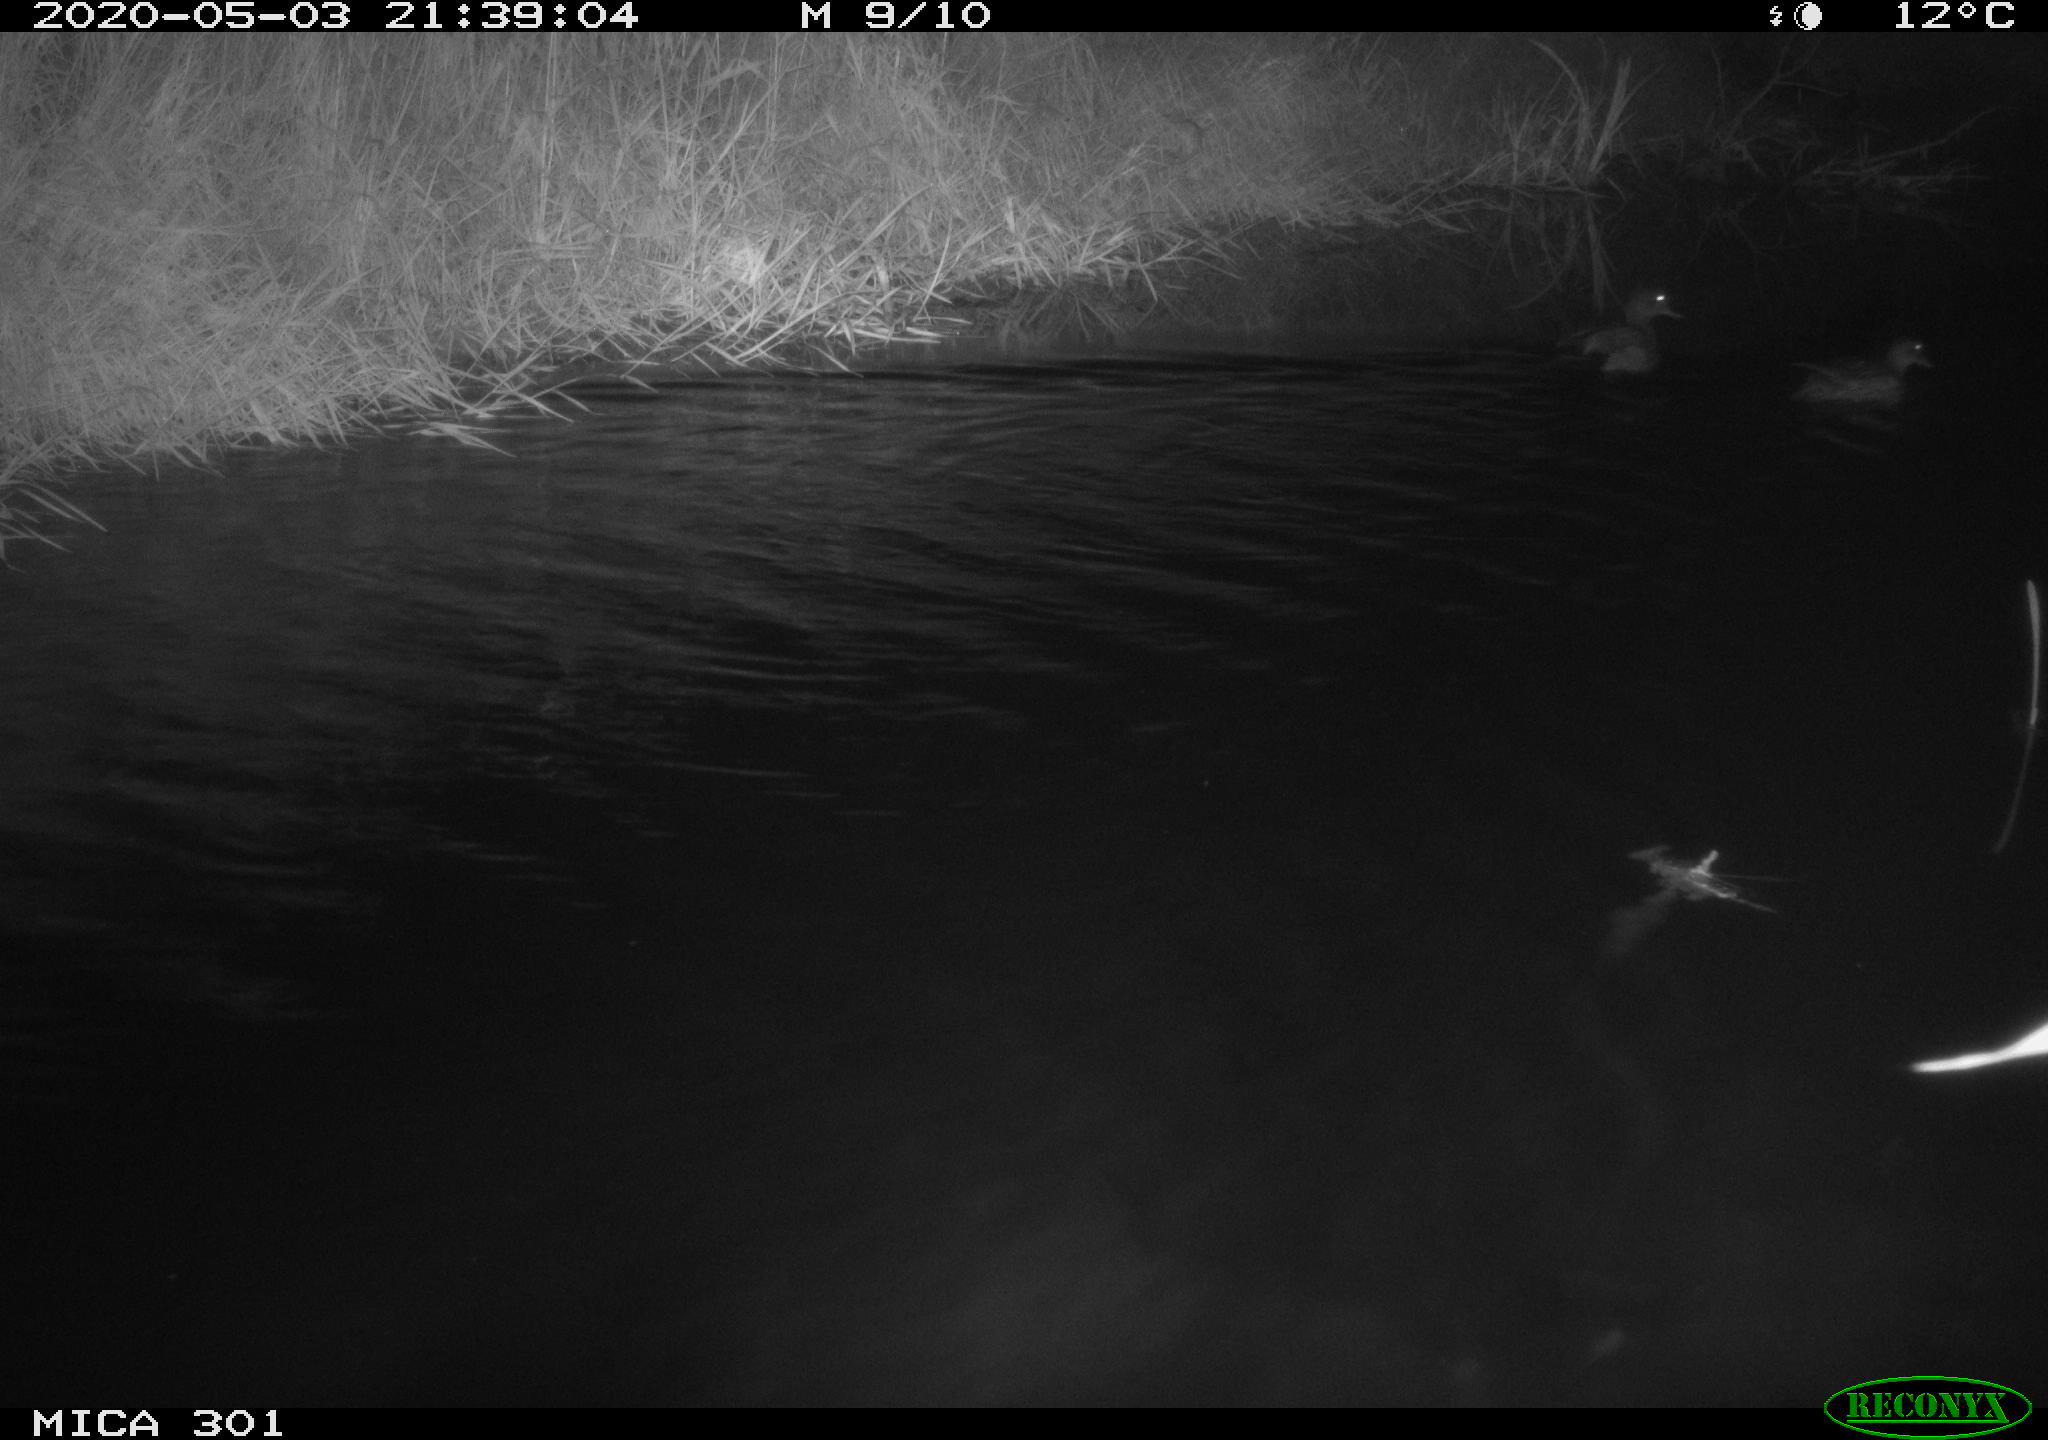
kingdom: Animalia
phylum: Chordata
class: Aves
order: Anseriformes
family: Anatidae
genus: Mareca
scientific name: Mareca strepera
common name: Gadwall
